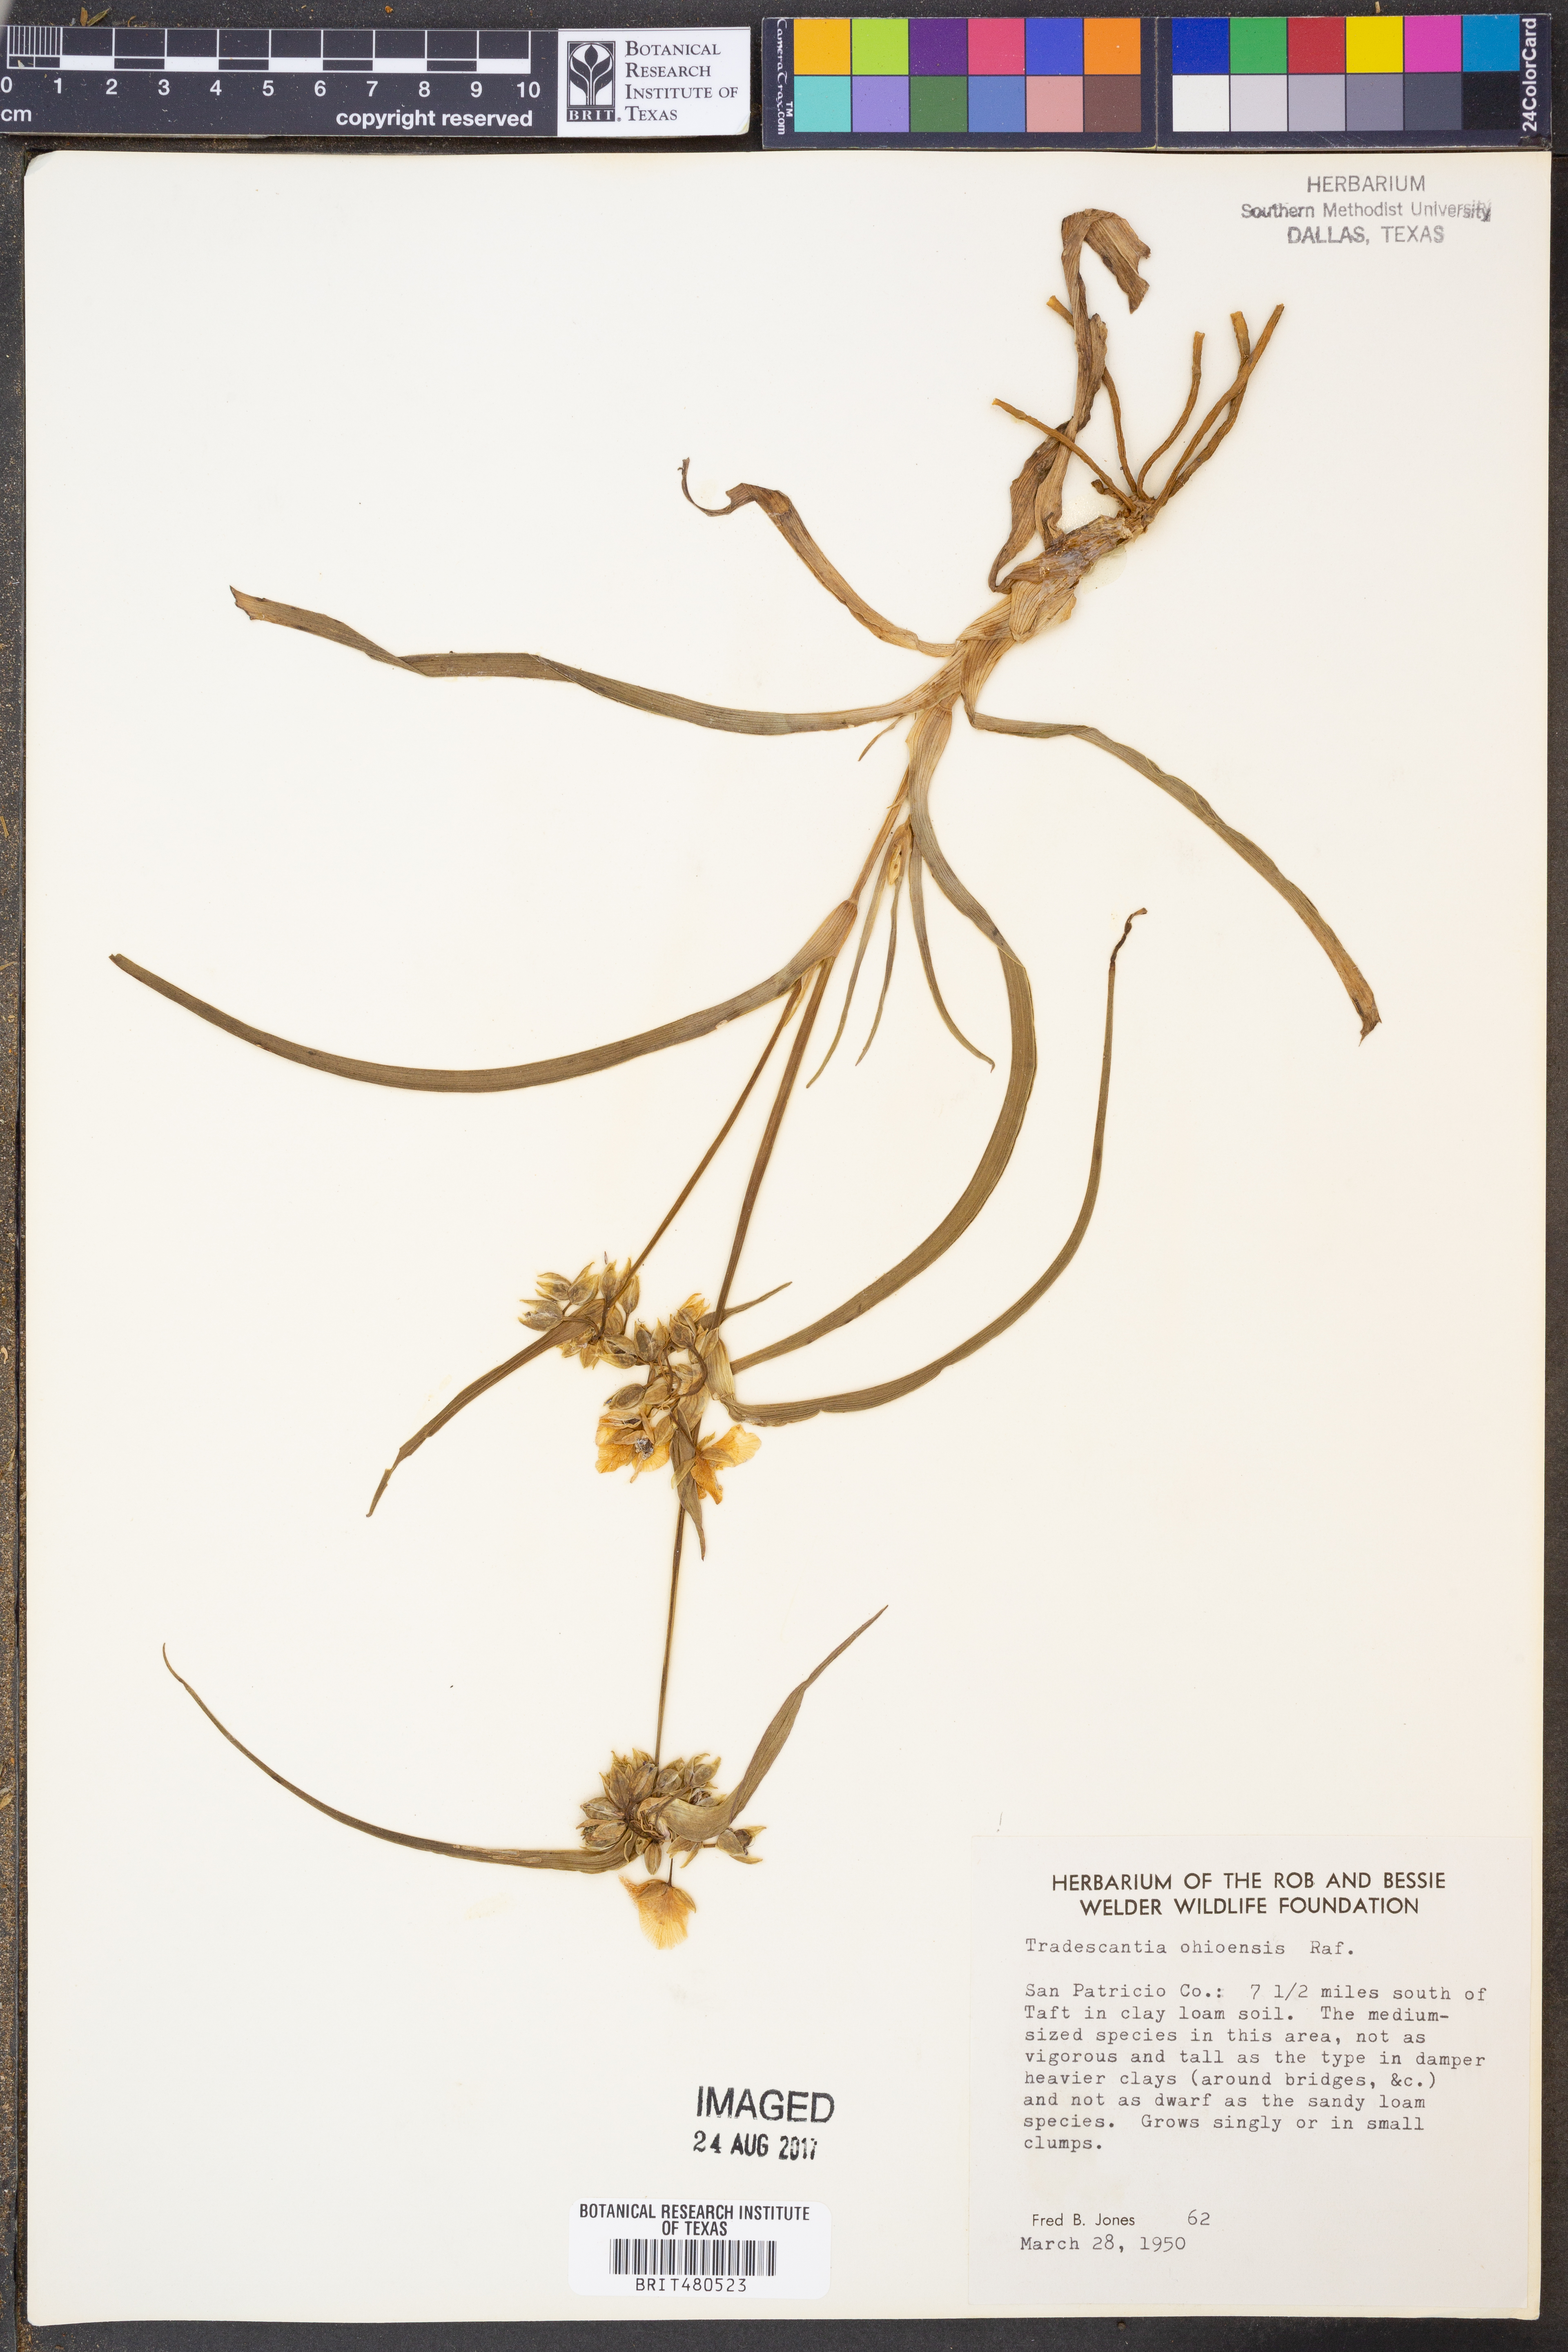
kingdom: Plantae
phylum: Tracheophyta
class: Liliopsida
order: Commelinales
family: Commelinaceae
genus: Tradescantia
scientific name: Tradescantia ohiensis
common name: Ohio spiderwort
